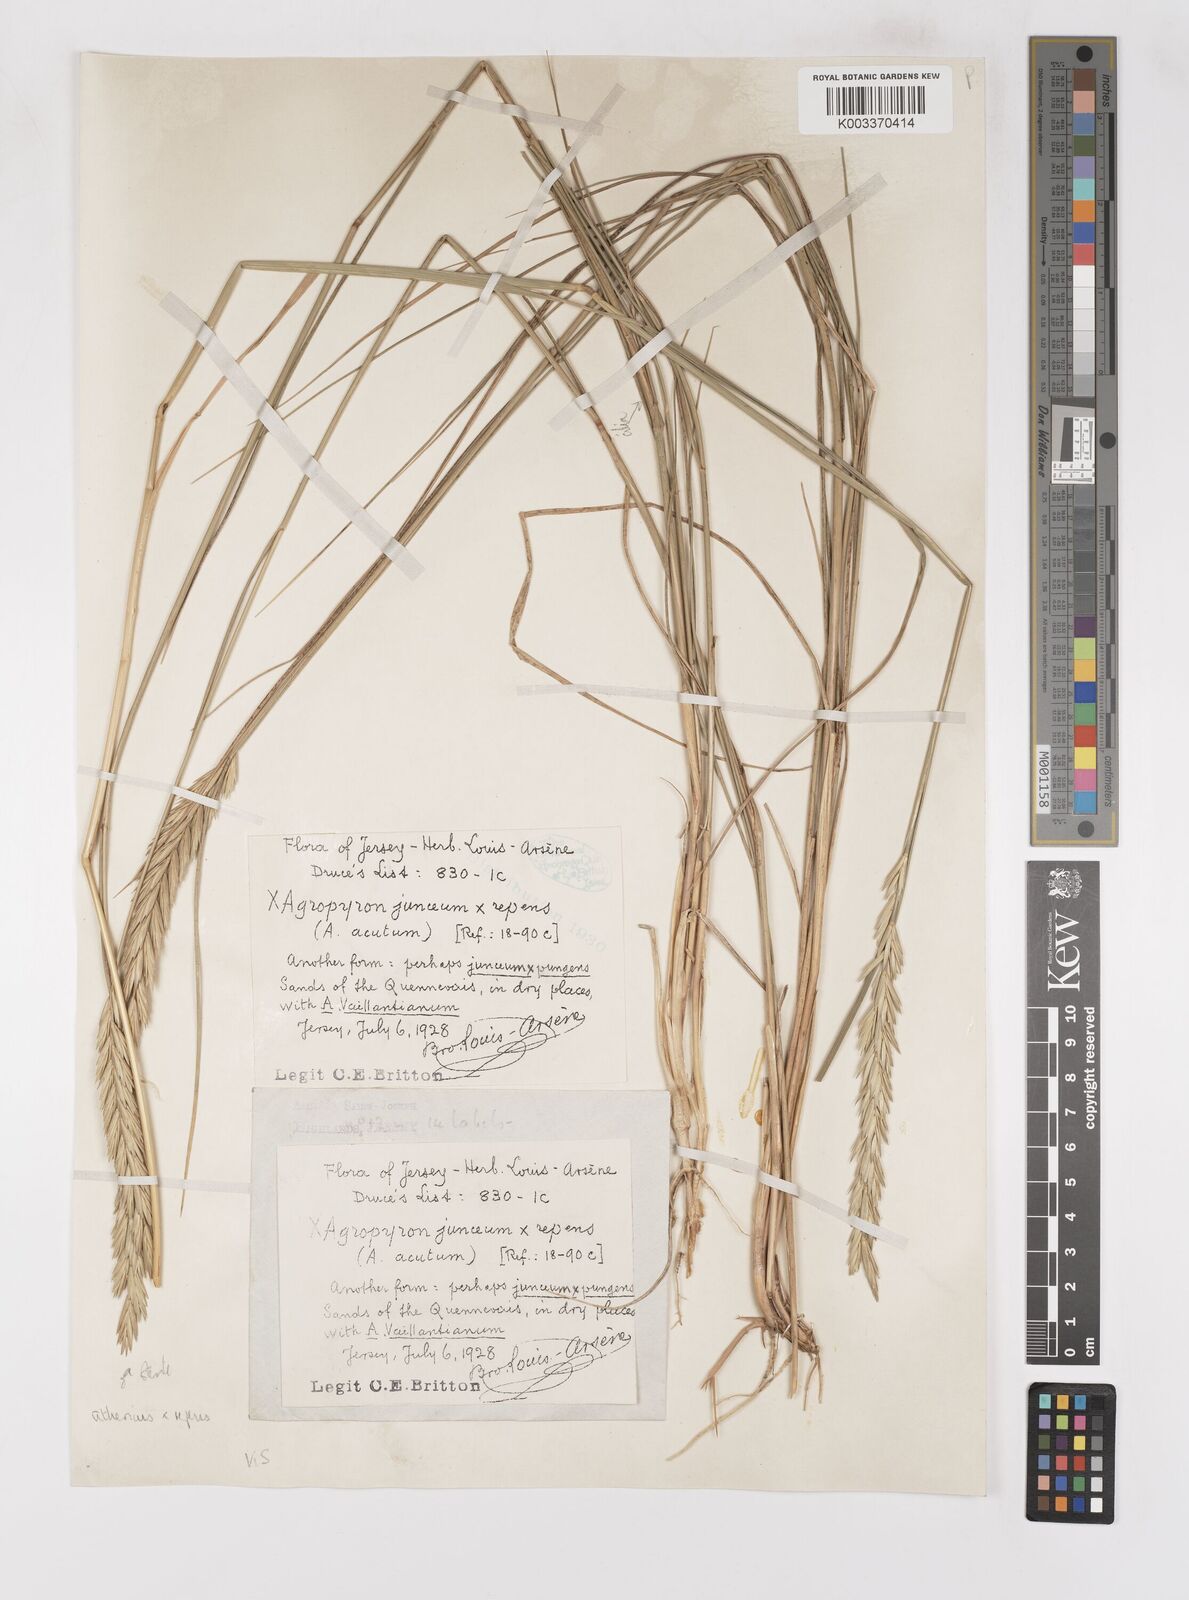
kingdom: Plantae
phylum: Tracheophyta
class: Liliopsida
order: Poales
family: Poaceae
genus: Elymus
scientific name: Elymus oliveri
